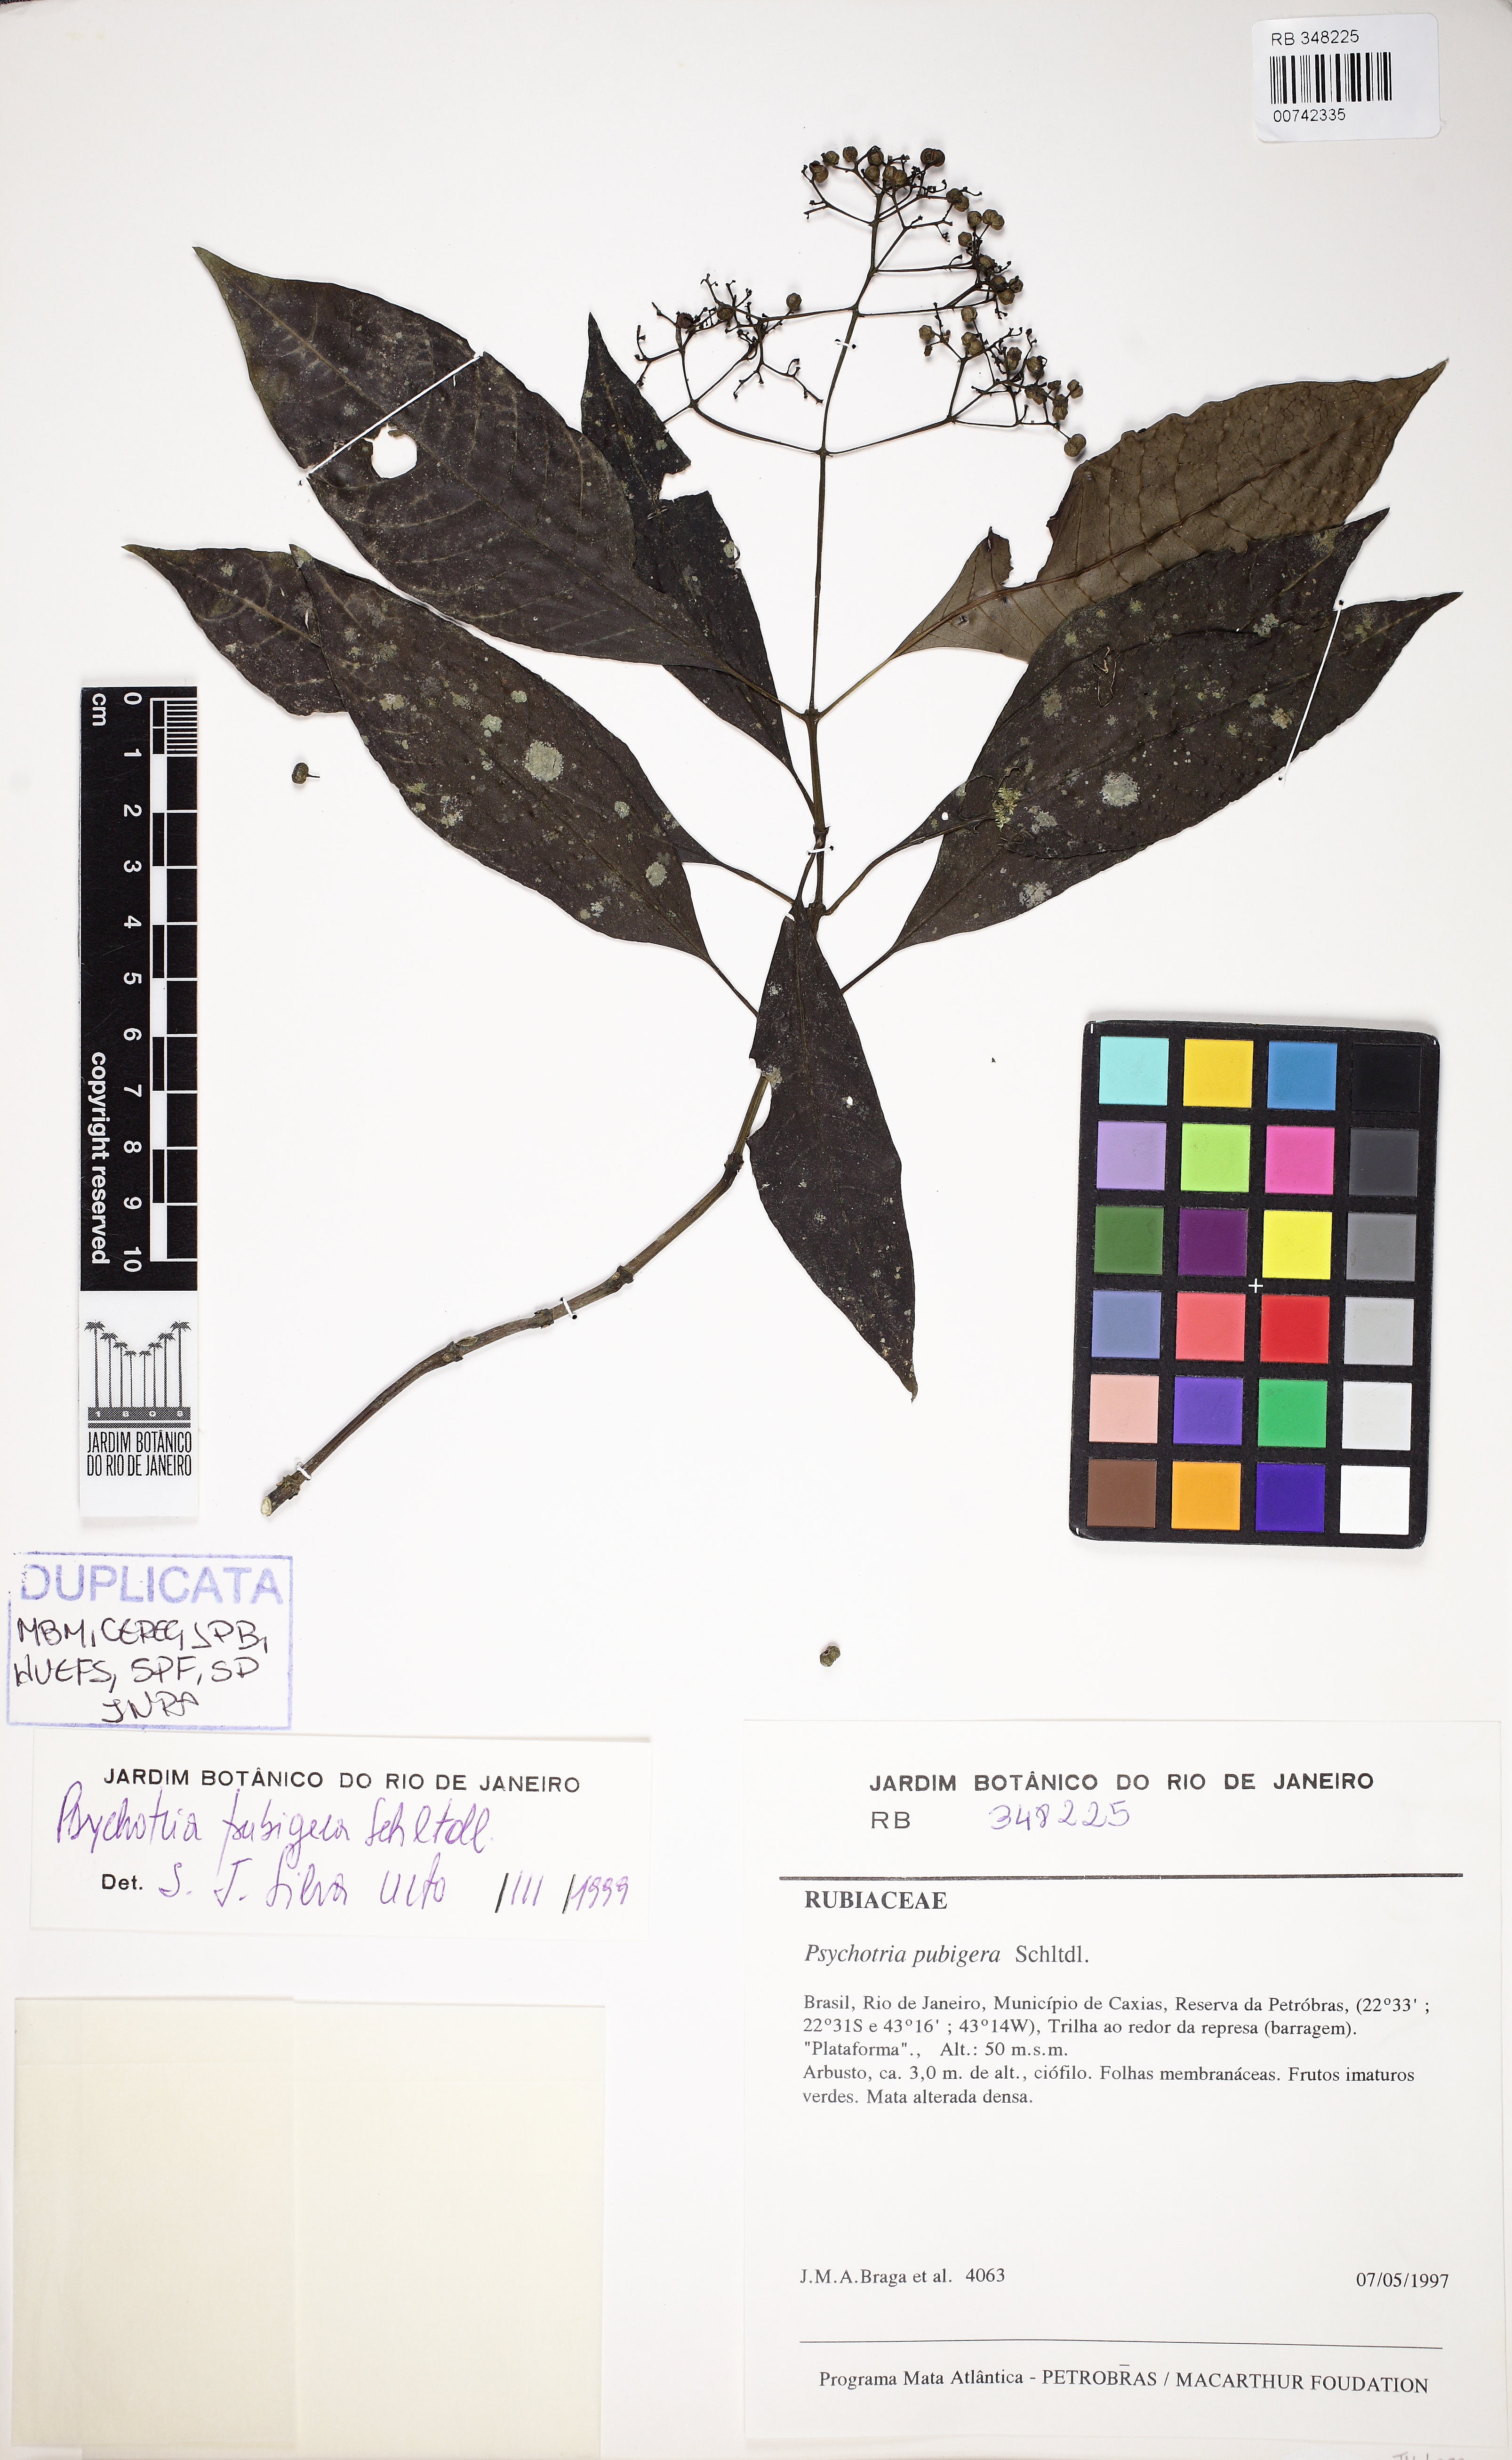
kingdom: Plantae
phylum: Tracheophyta
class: Magnoliopsida
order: Gentianales
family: Rubiaceae
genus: Psychotria
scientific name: Psychotria nemorosa
